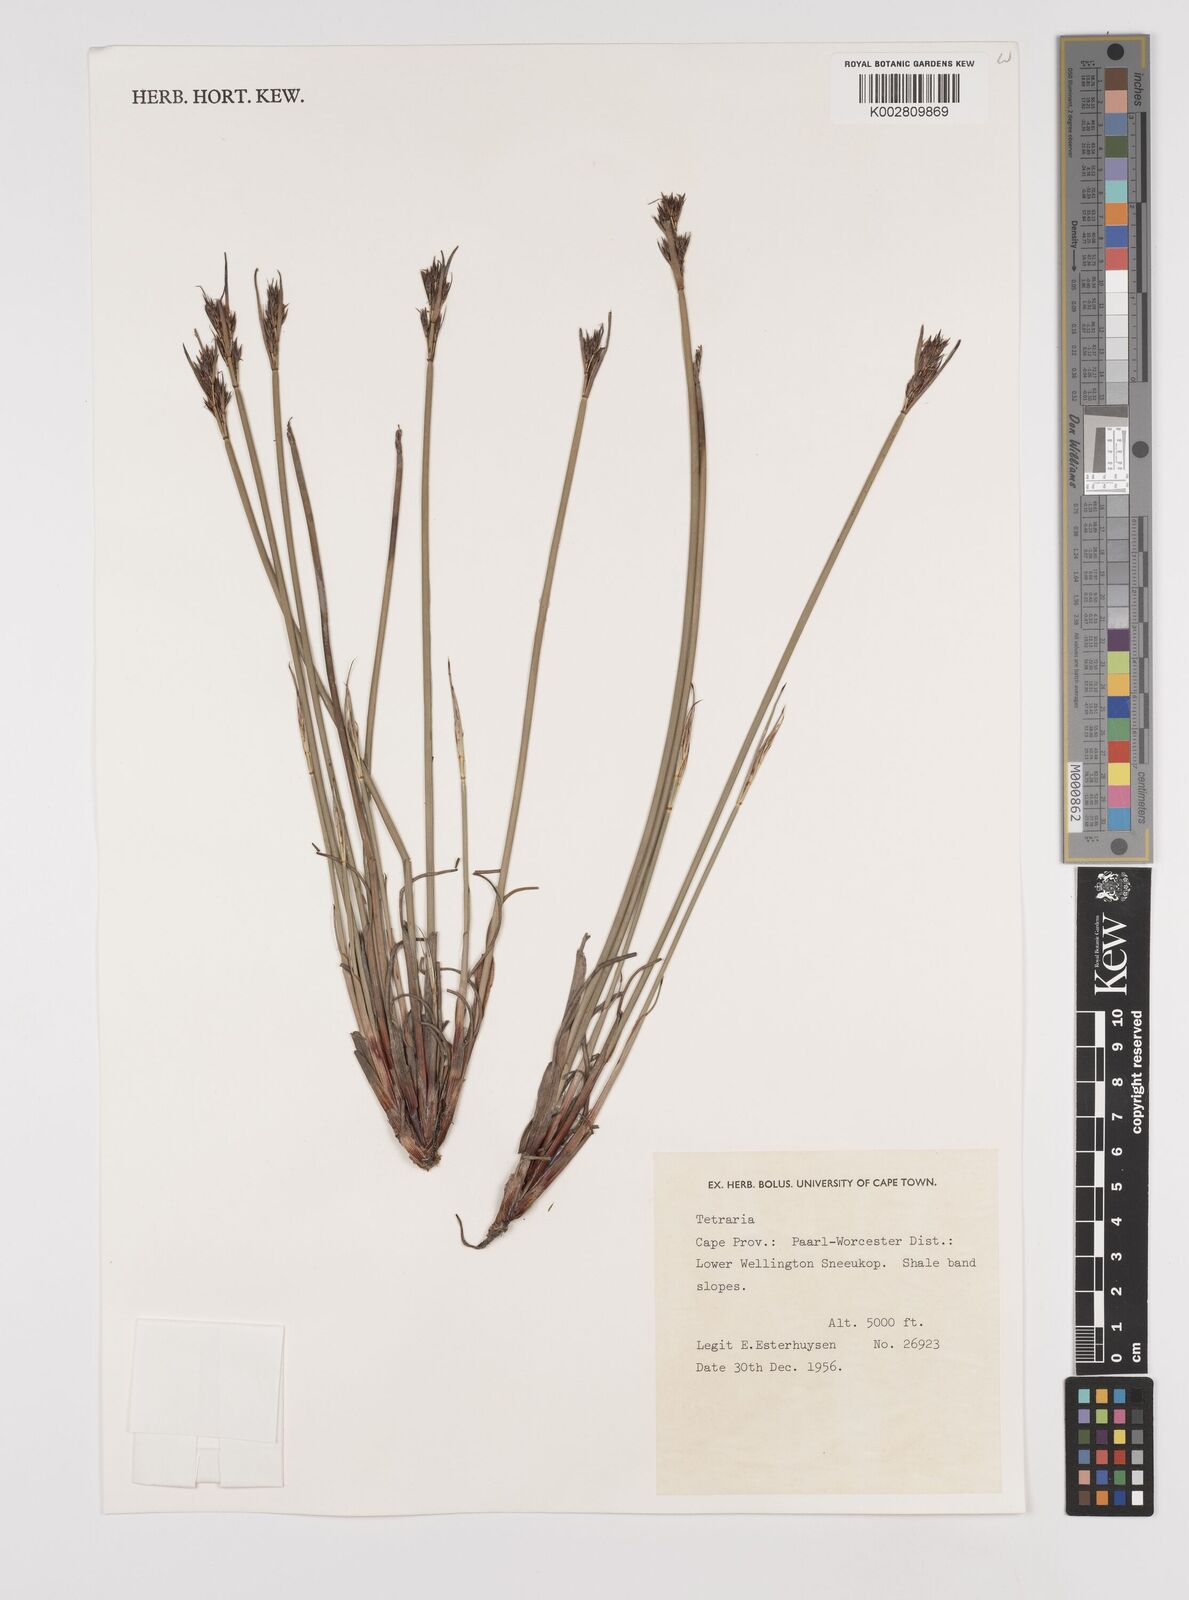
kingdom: Plantae
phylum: Tracheophyta
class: Liliopsida
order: Poales
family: Cyperaceae
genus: Schoenus
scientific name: Schoenus
